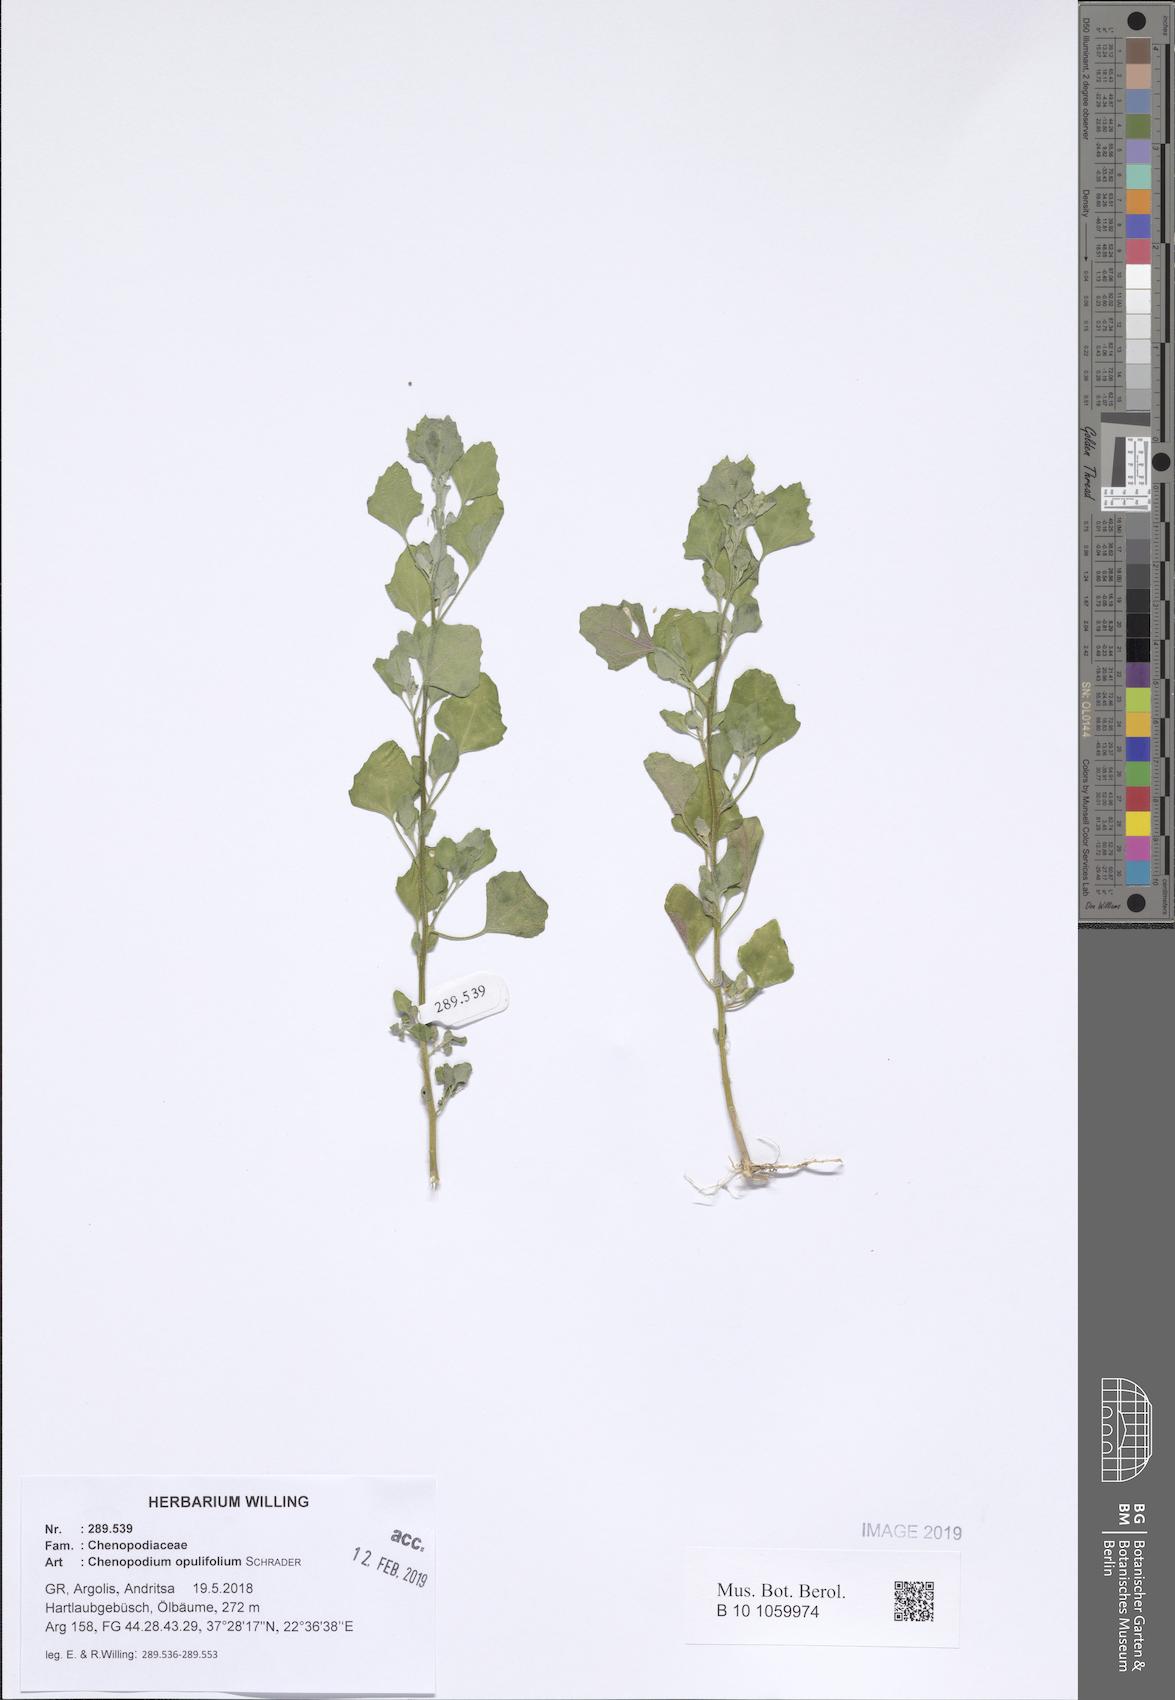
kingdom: Plantae
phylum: Tracheophyta
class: Magnoliopsida
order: Caryophyllales
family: Amaranthaceae
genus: Chenopodium
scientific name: Chenopodium opulifolium
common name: Grey goosefoot
